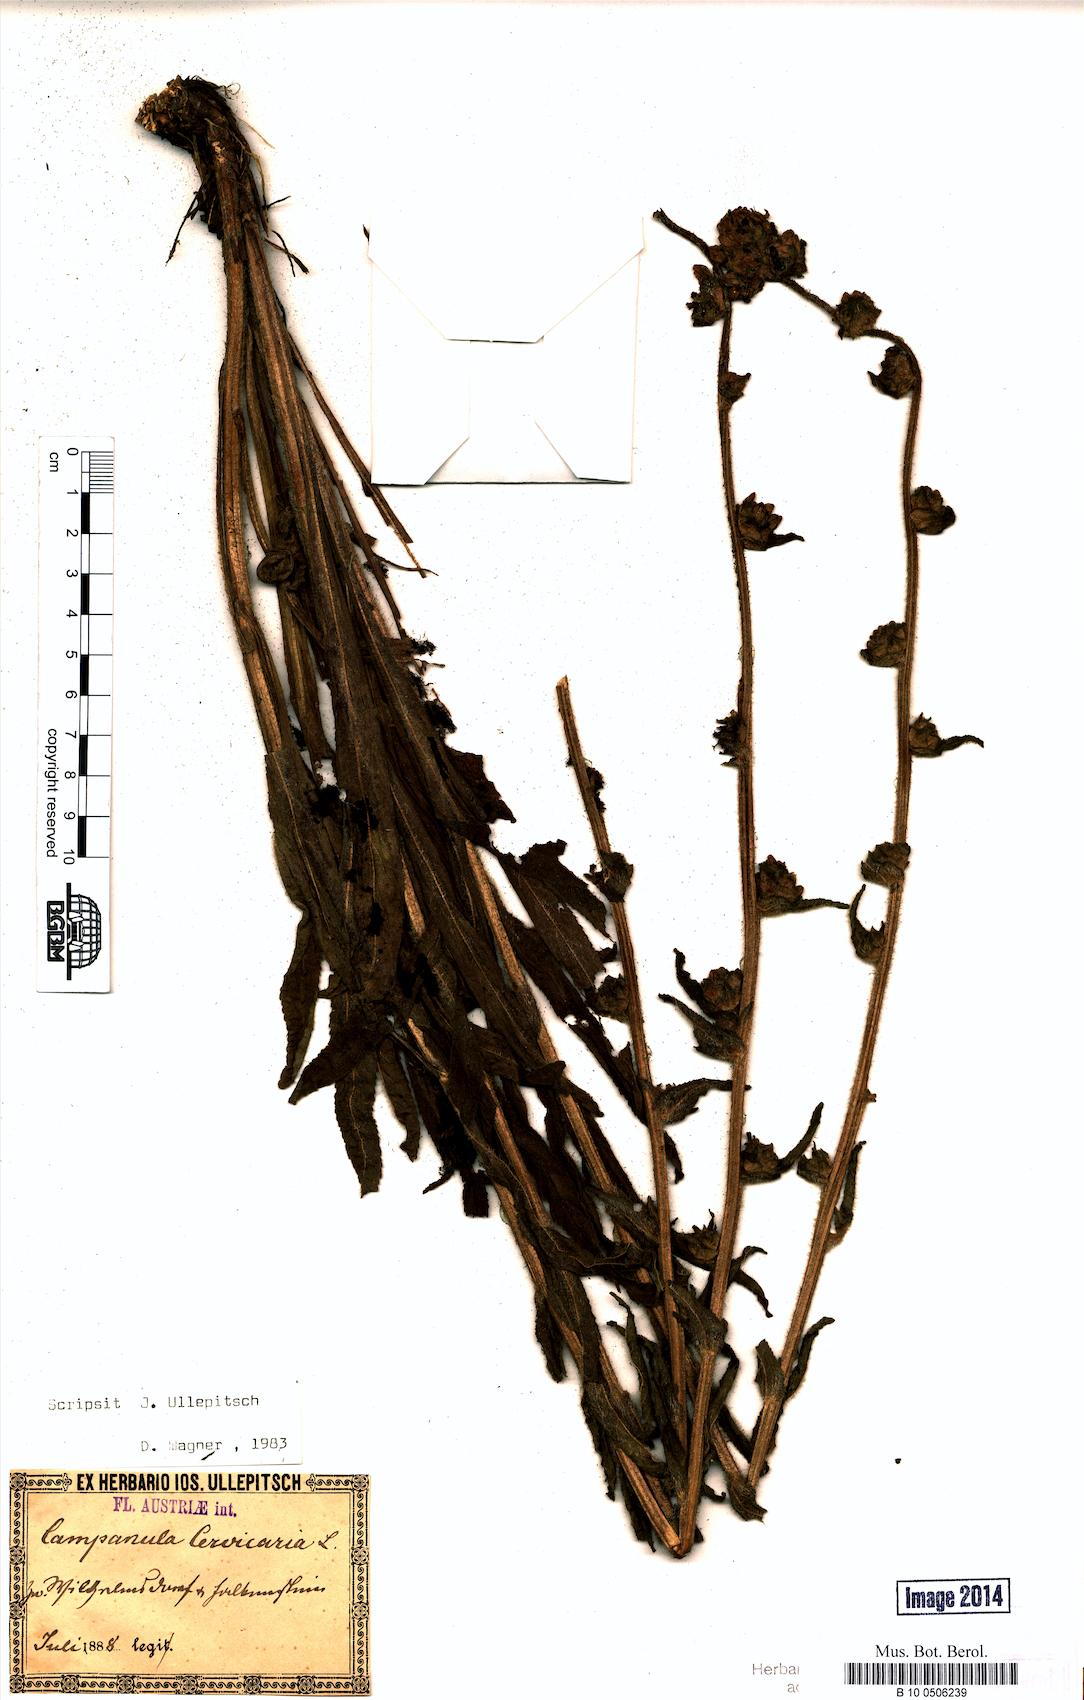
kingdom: Plantae
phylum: Tracheophyta
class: Magnoliopsida
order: Asterales
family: Campanulaceae
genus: Campanula
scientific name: Campanula cervicaria
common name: Bristly bellflower
